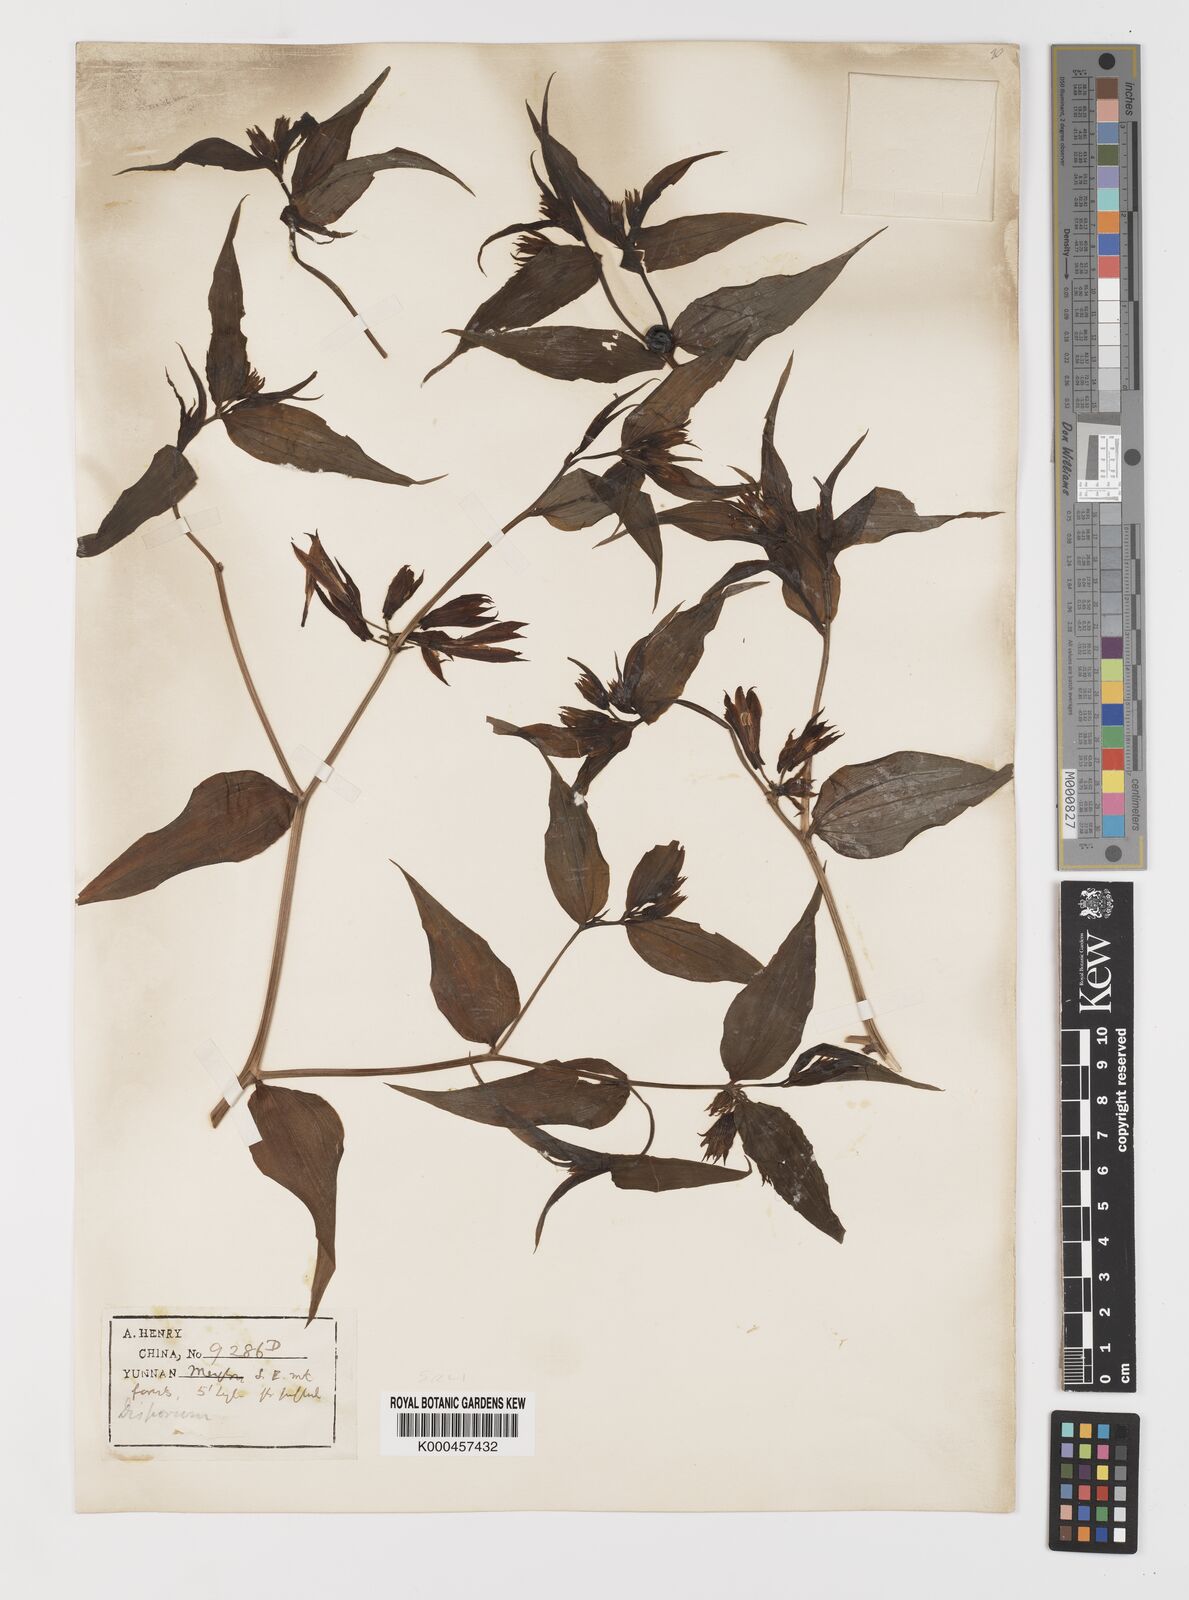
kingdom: Plantae
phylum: Tracheophyta
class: Liliopsida
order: Liliales
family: Colchicaceae
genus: Disporum
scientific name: Disporum calcaratum
